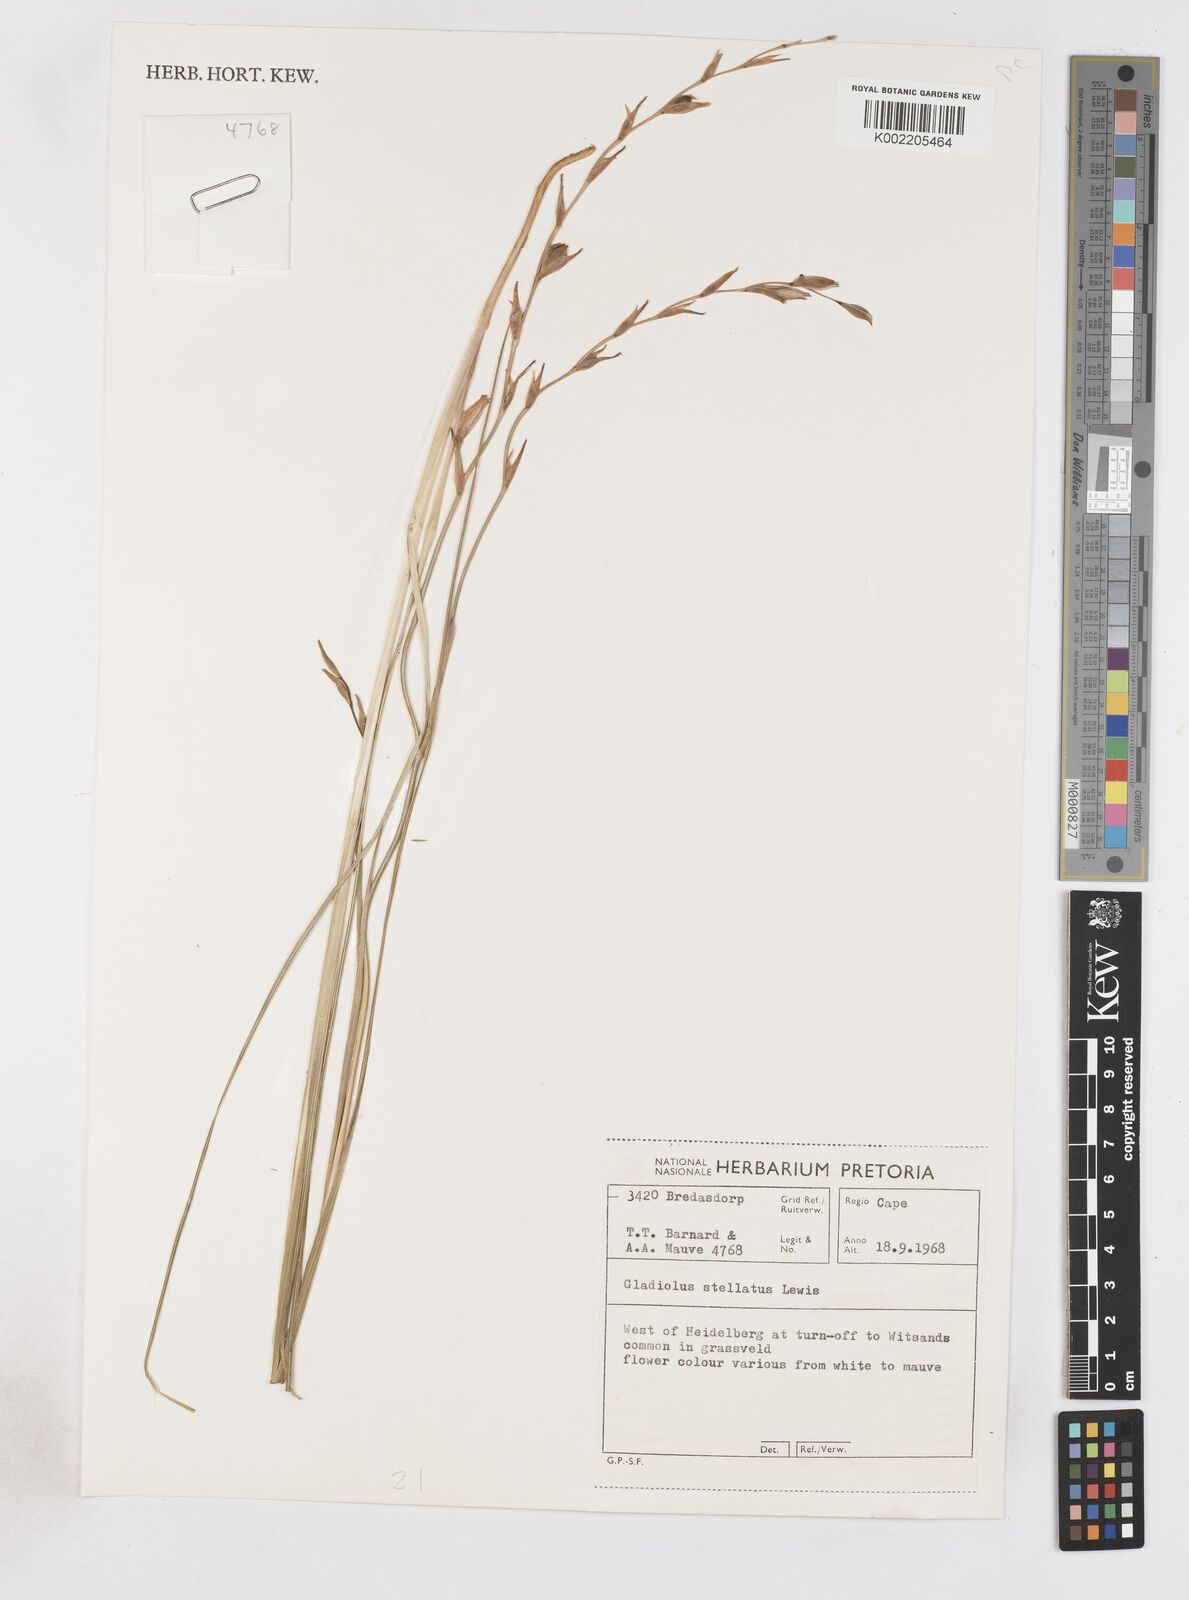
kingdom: Plantae
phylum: Tracheophyta
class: Liliopsida
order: Asparagales
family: Iridaceae
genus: Gladiolus
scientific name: Gladiolus stellatus
